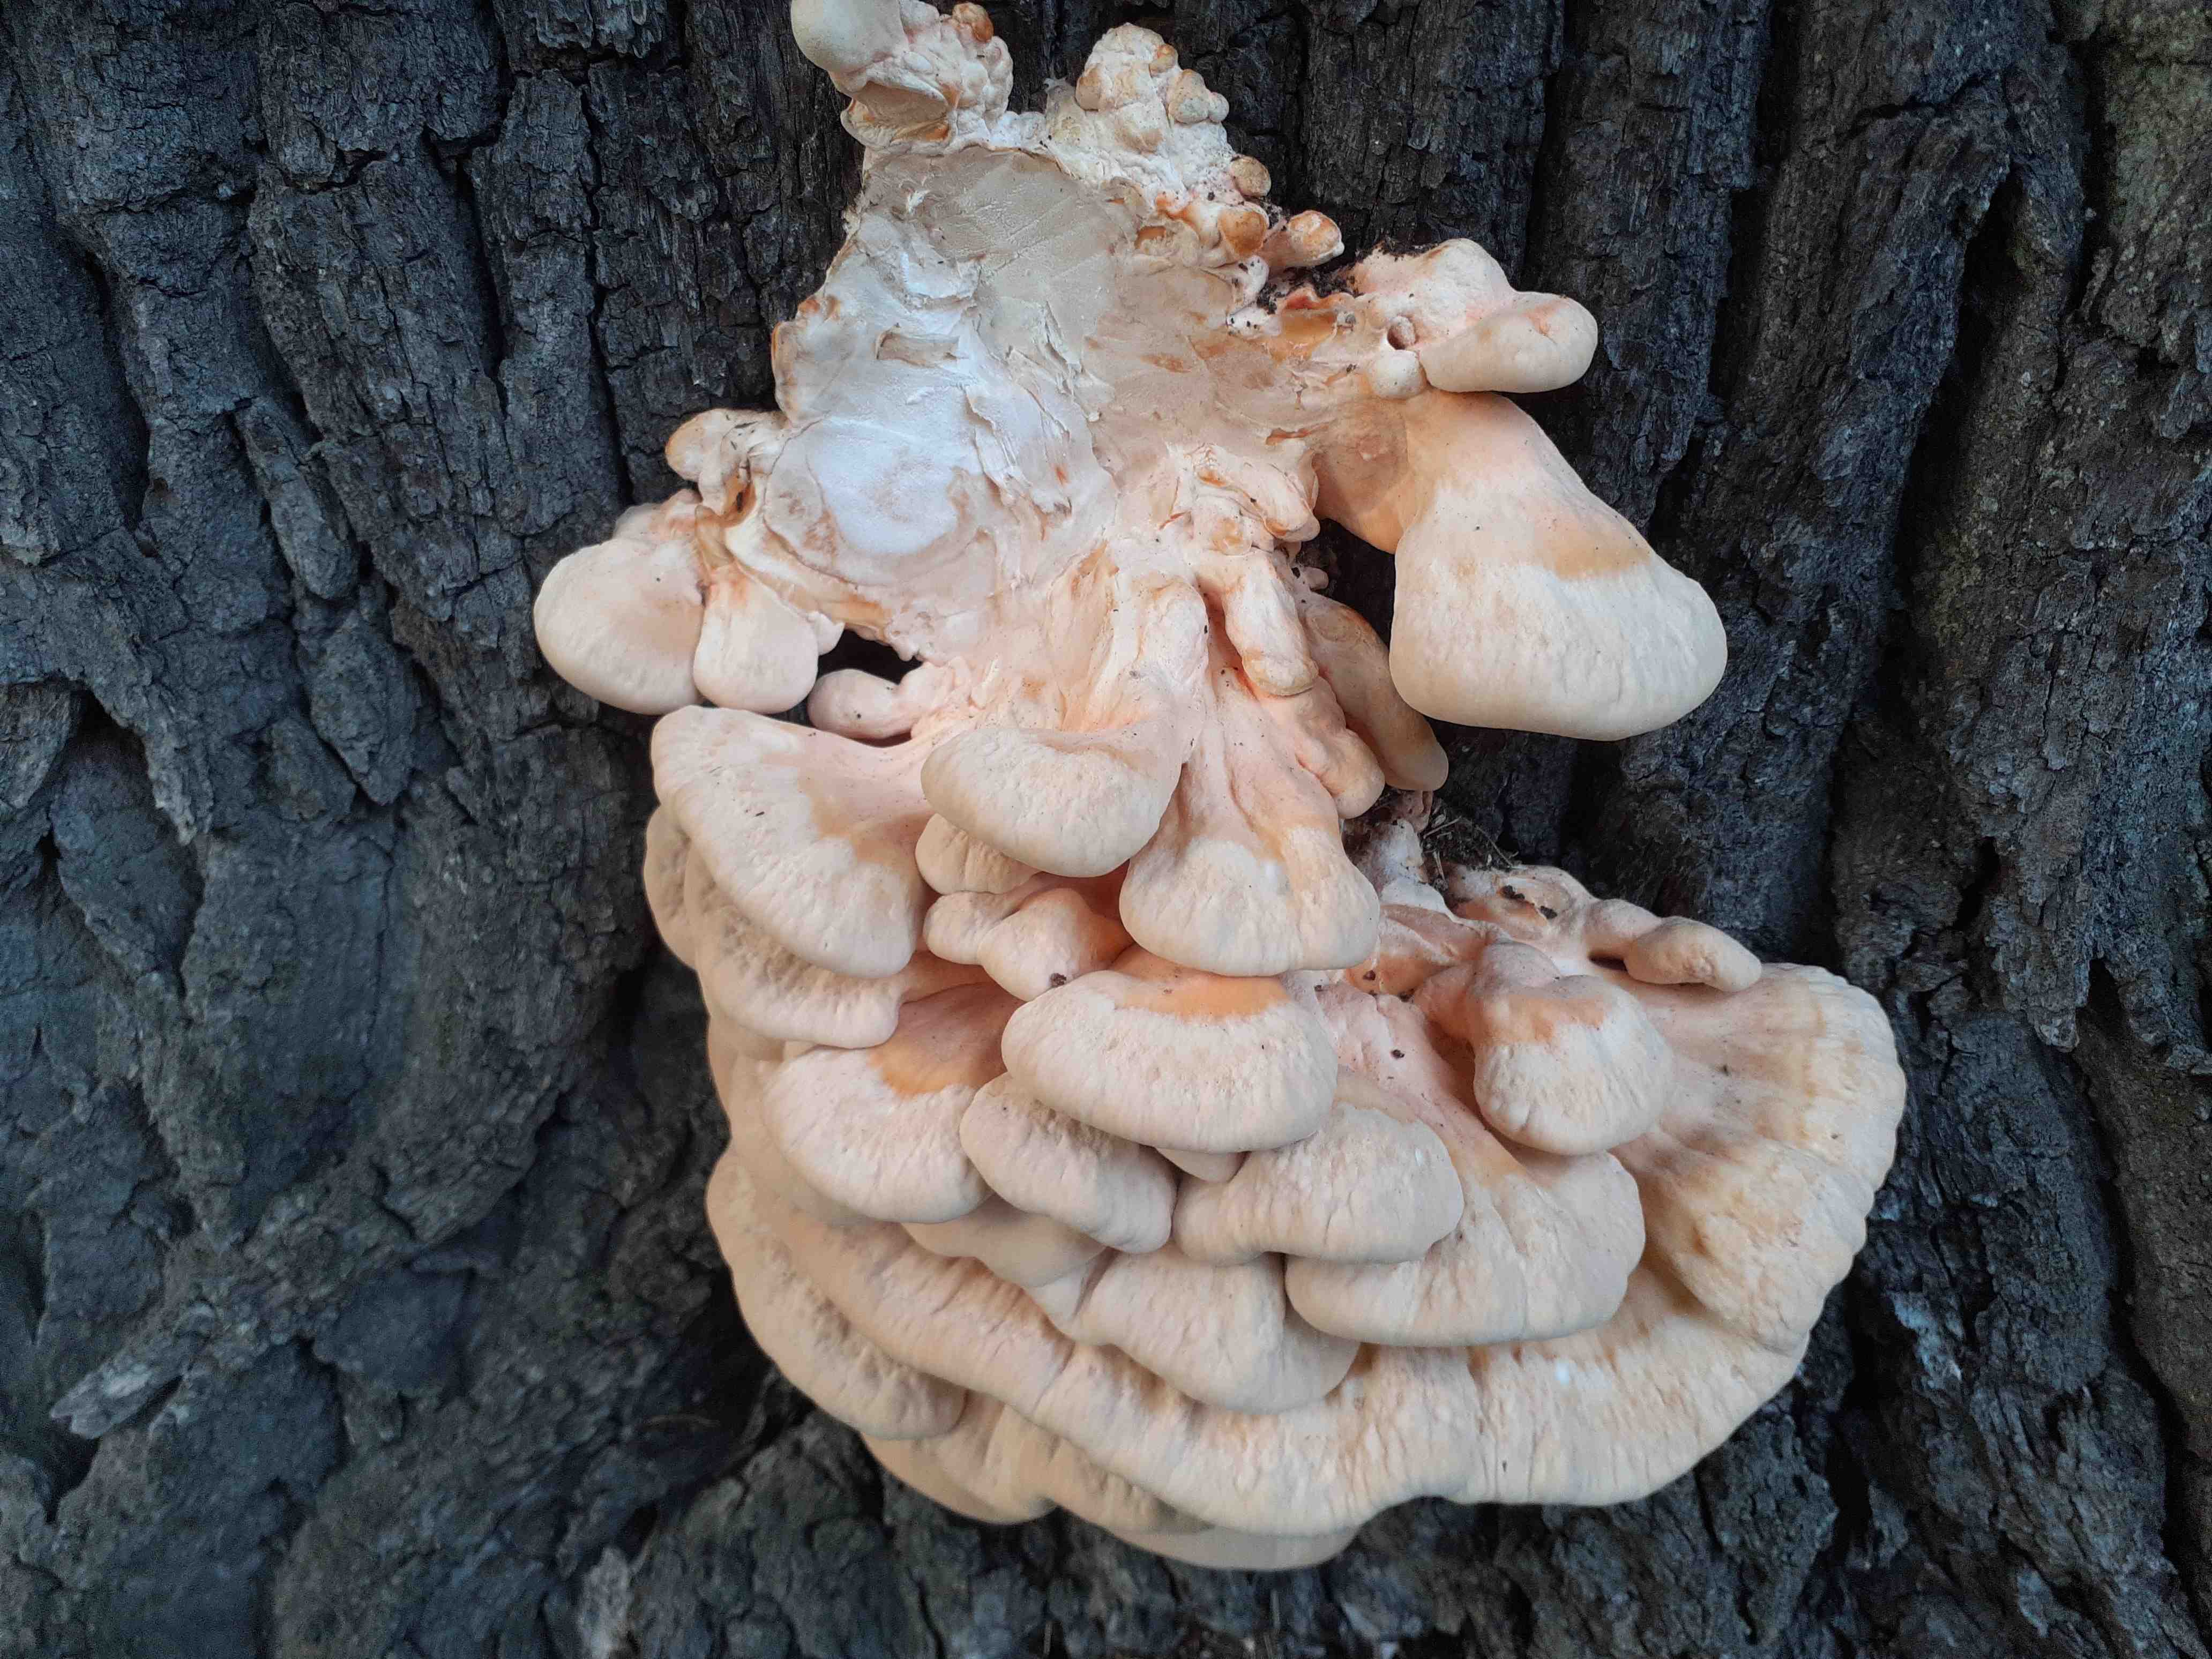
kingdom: Fungi
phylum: Basidiomycota
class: Agaricomycetes
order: Polyporales
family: Laetiporaceae
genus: Laetiporus
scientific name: Laetiporus sulphureus
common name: svovlporesvamp
